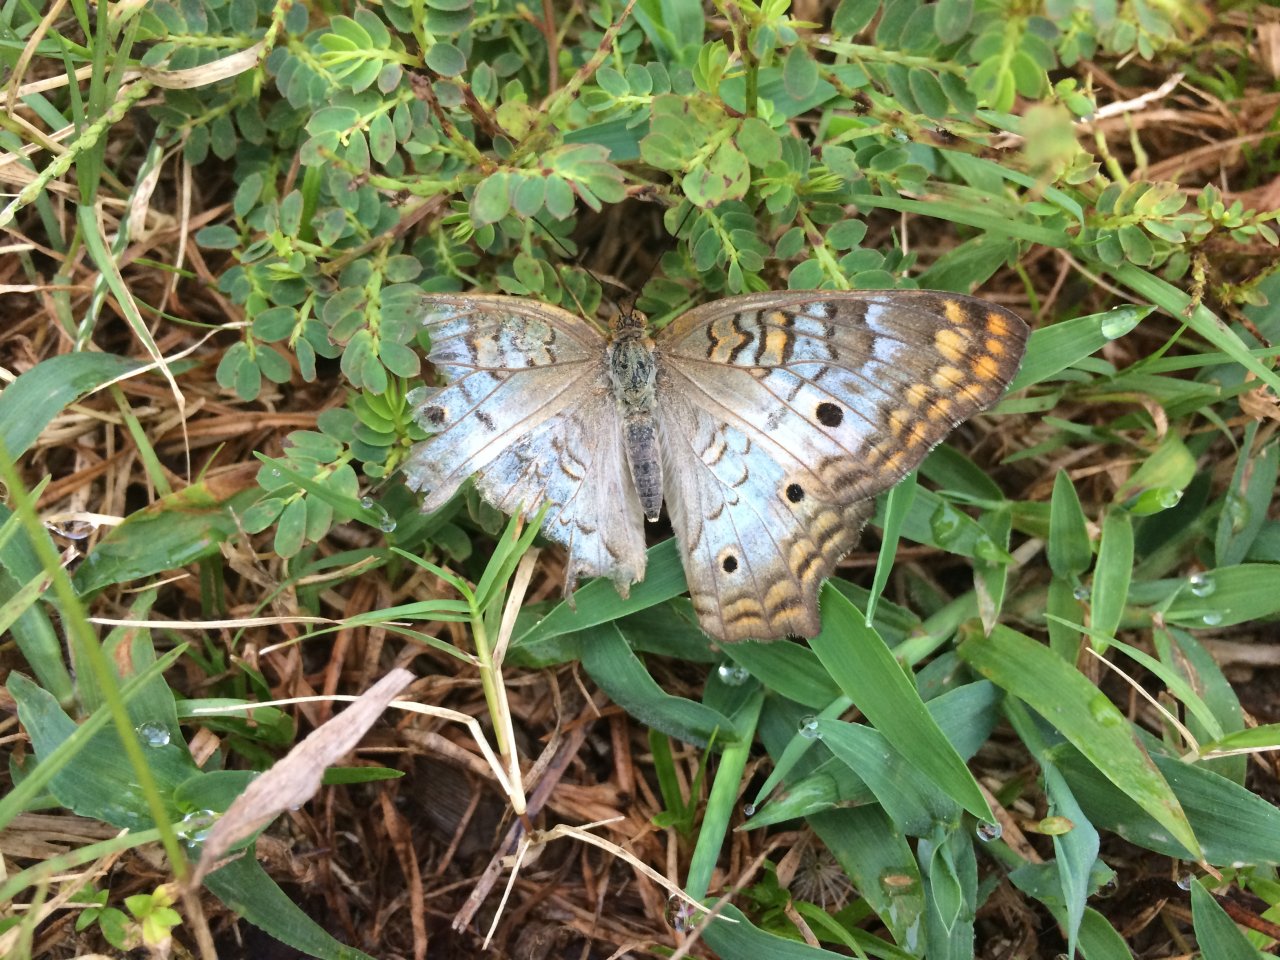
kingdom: Animalia
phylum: Arthropoda
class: Insecta
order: Lepidoptera
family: Nymphalidae
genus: Anartia
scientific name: Anartia jatrophae
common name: White Peacock
